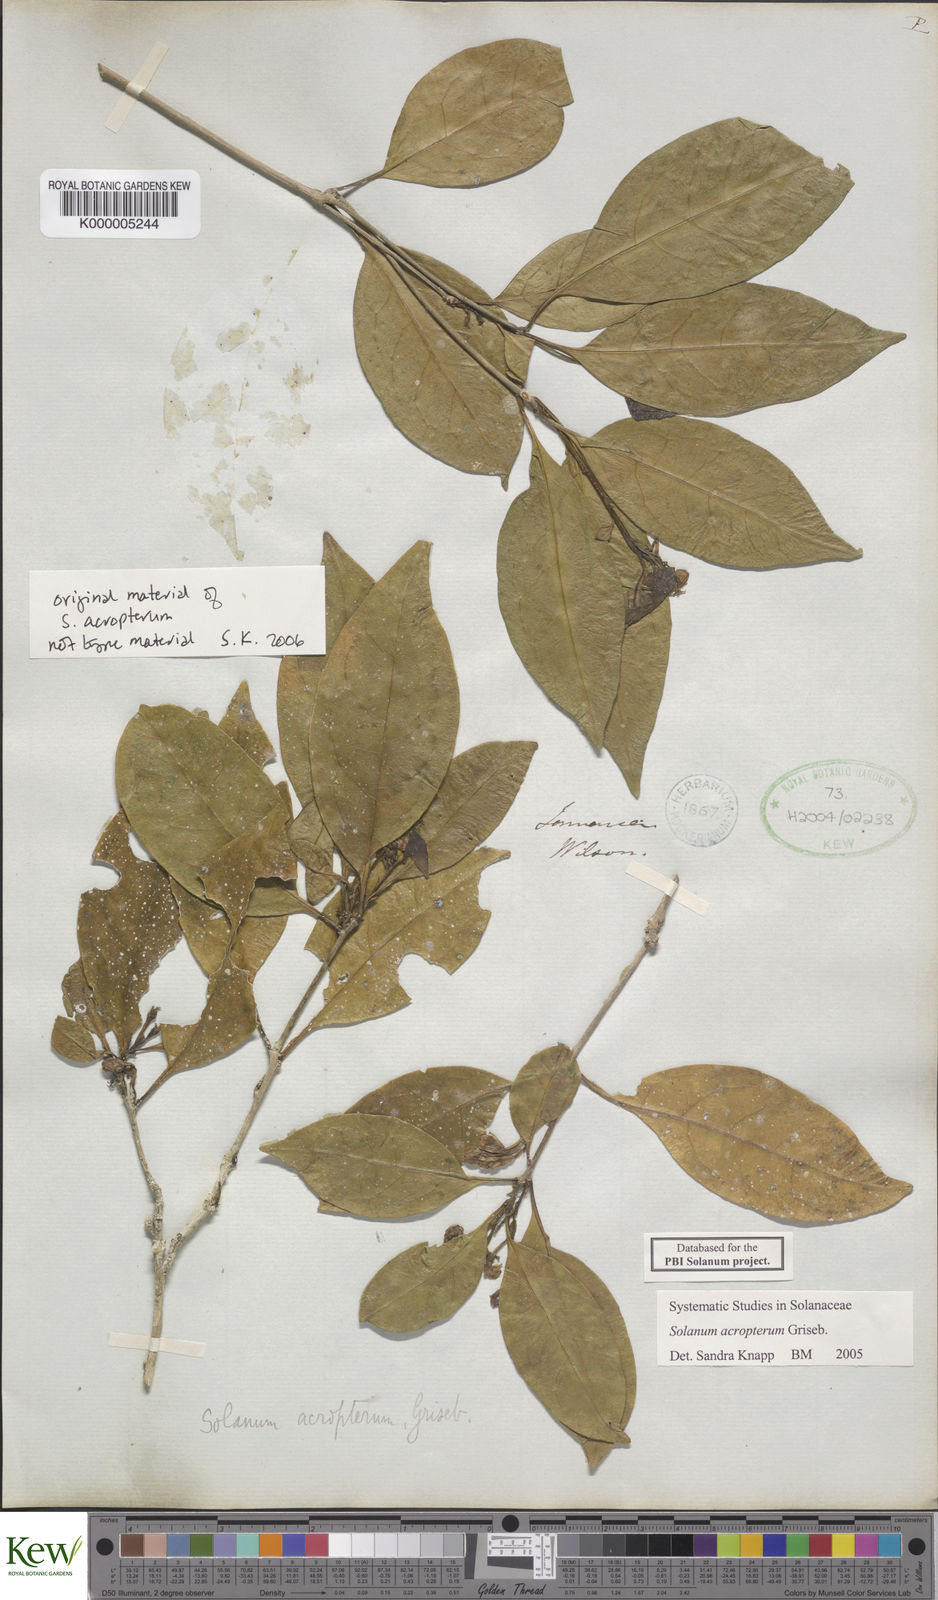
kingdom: Plantae
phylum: Tracheophyta
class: Magnoliopsida
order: Solanales
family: Solanaceae
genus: Solanum
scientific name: Solanum acropterum
